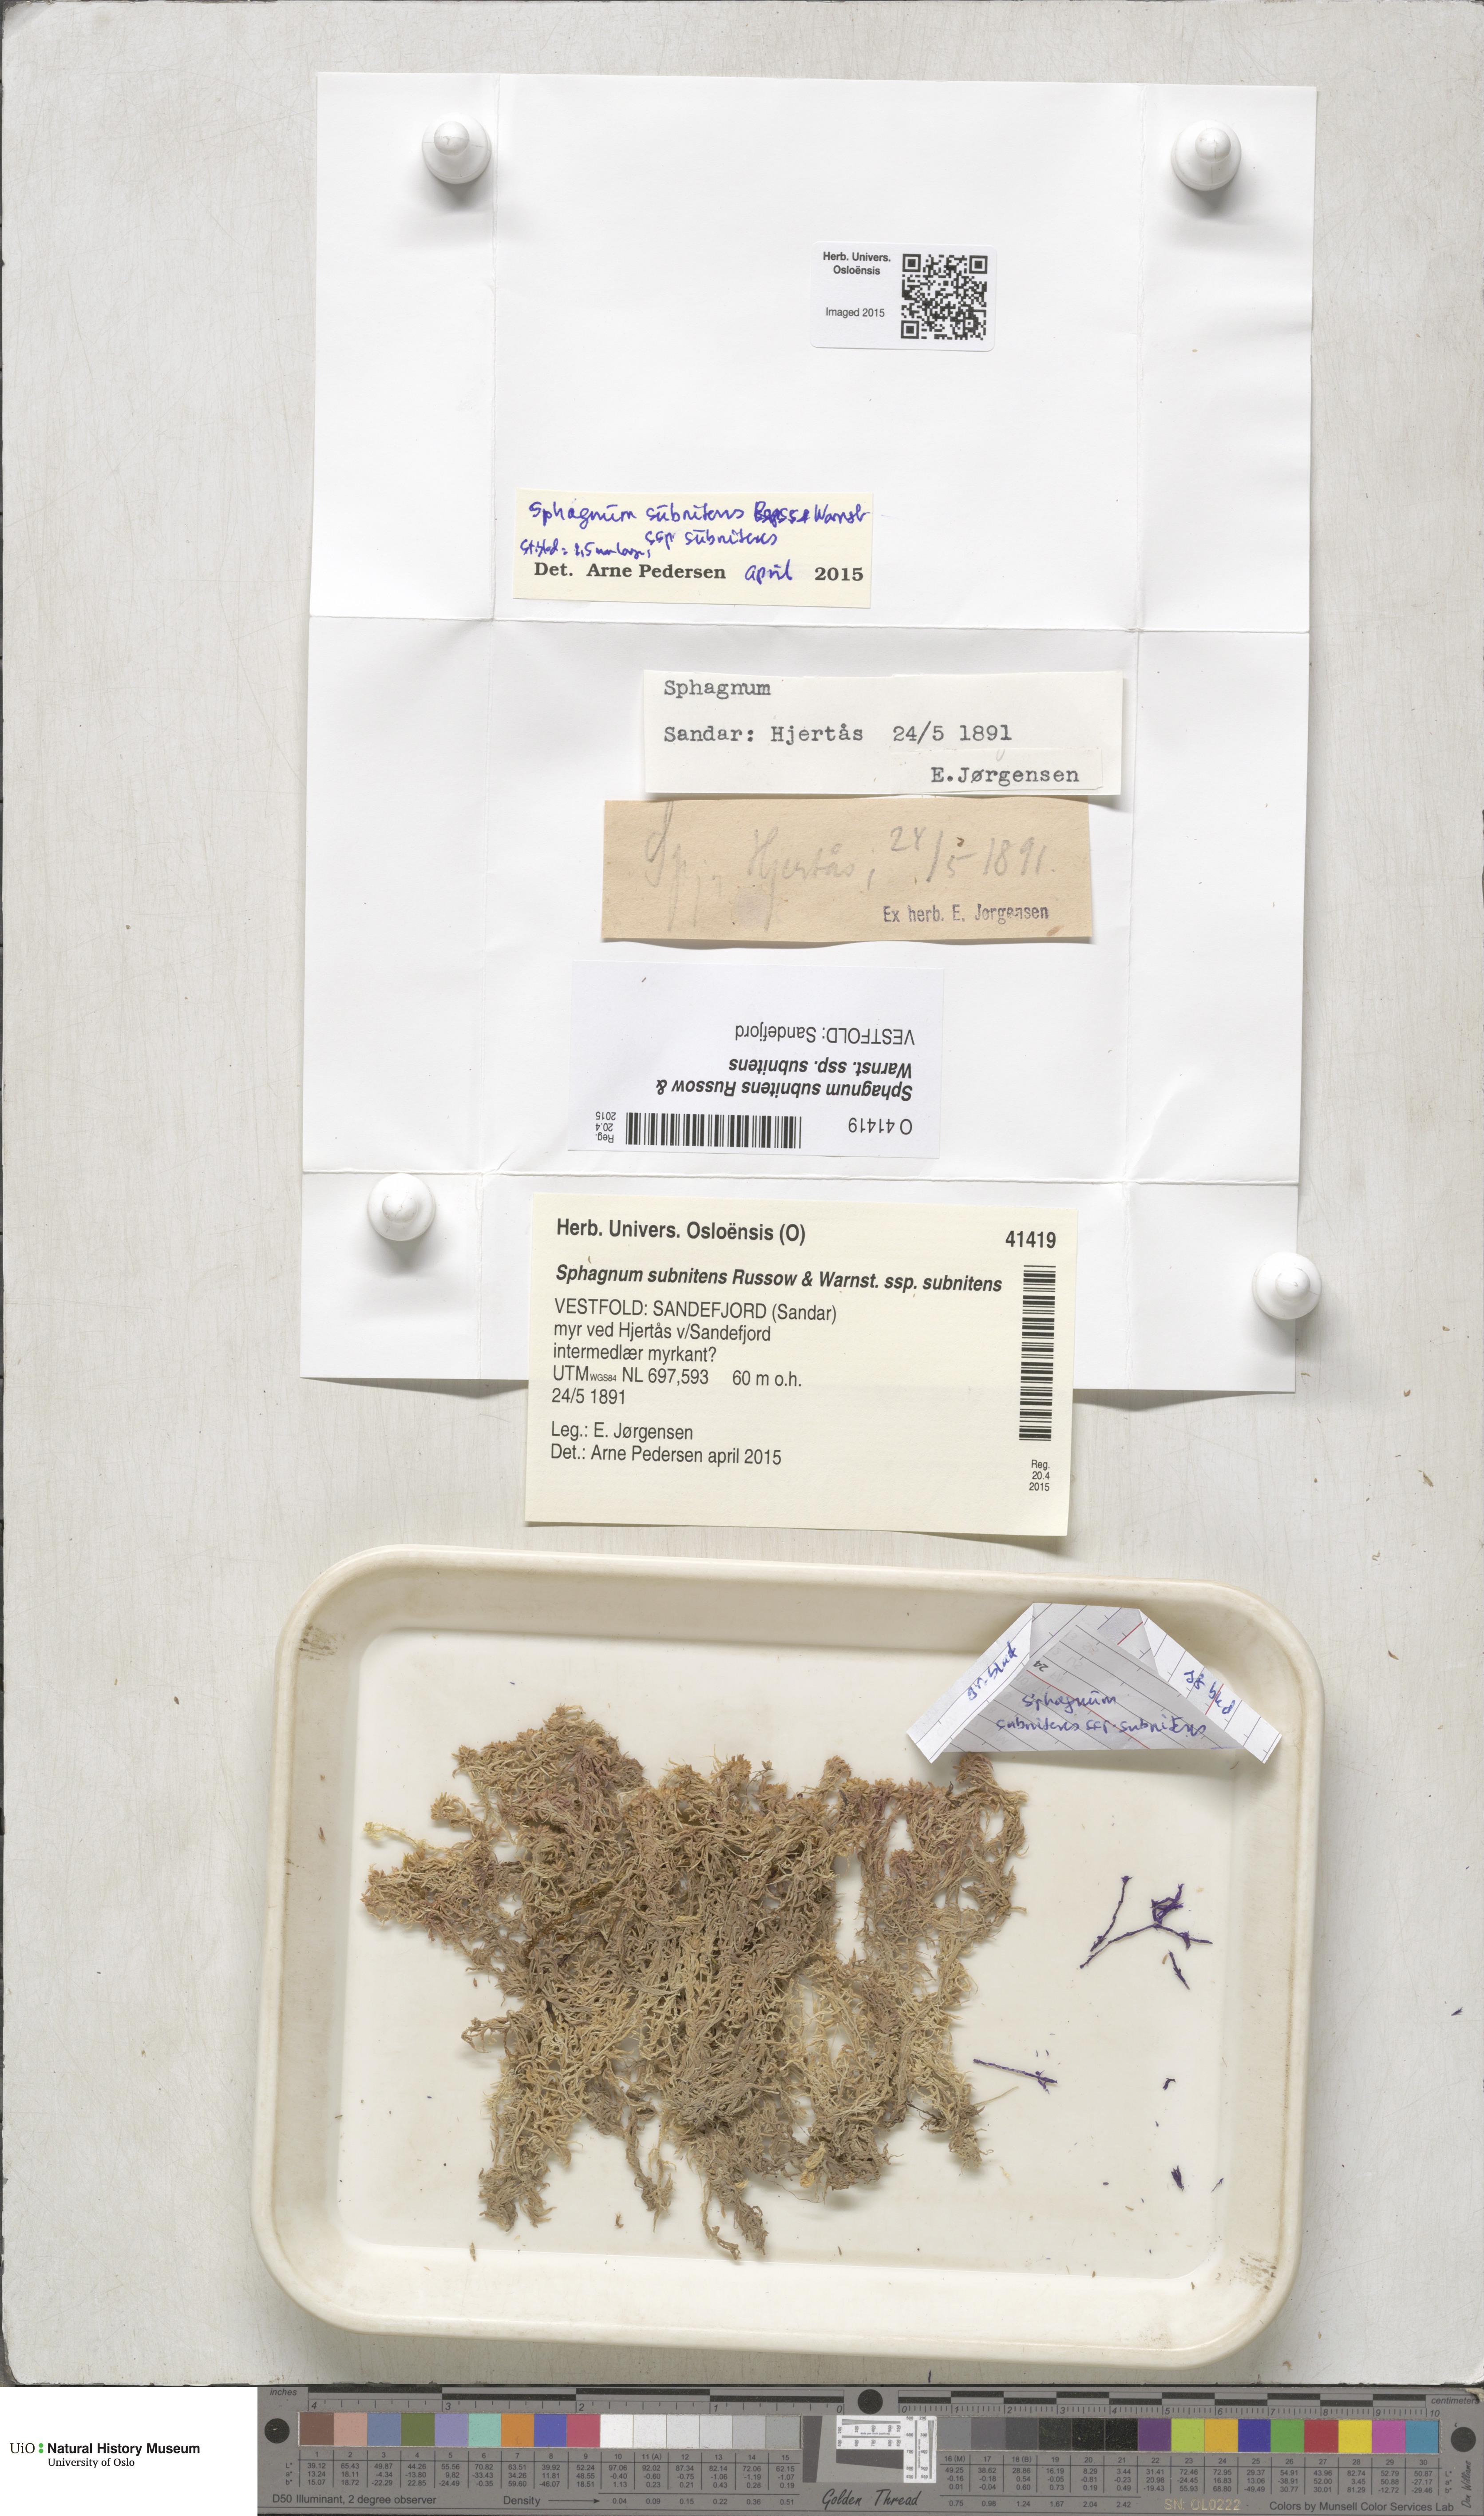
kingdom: Plantae
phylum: Bryophyta
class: Sphagnopsida
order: Sphagnales
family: Sphagnaceae
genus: Sphagnum
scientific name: Sphagnum subnitens
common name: Lustrous bog-moss
